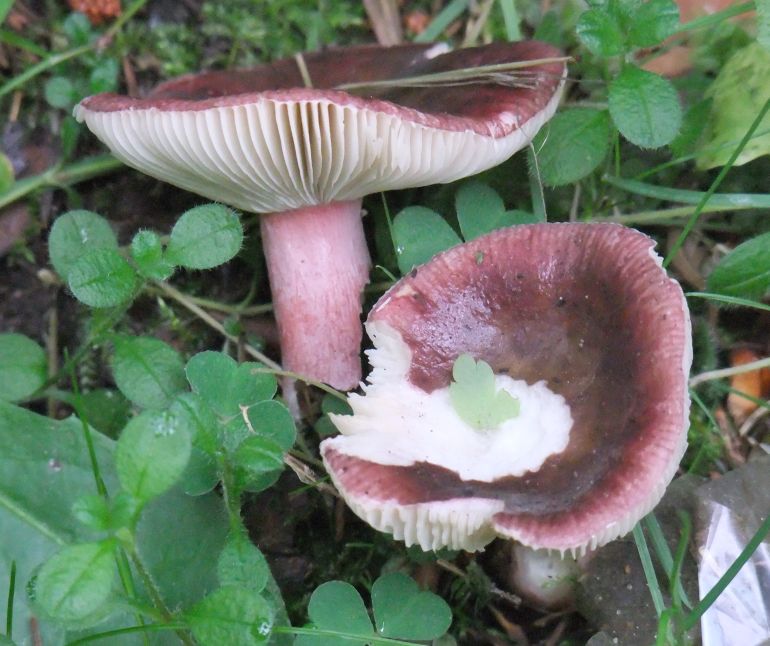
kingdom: Fungi
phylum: Basidiomycota
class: Agaricomycetes
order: Russulales
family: Russulaceae
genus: Russula
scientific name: Russula queletii
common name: Quélets skørhat
